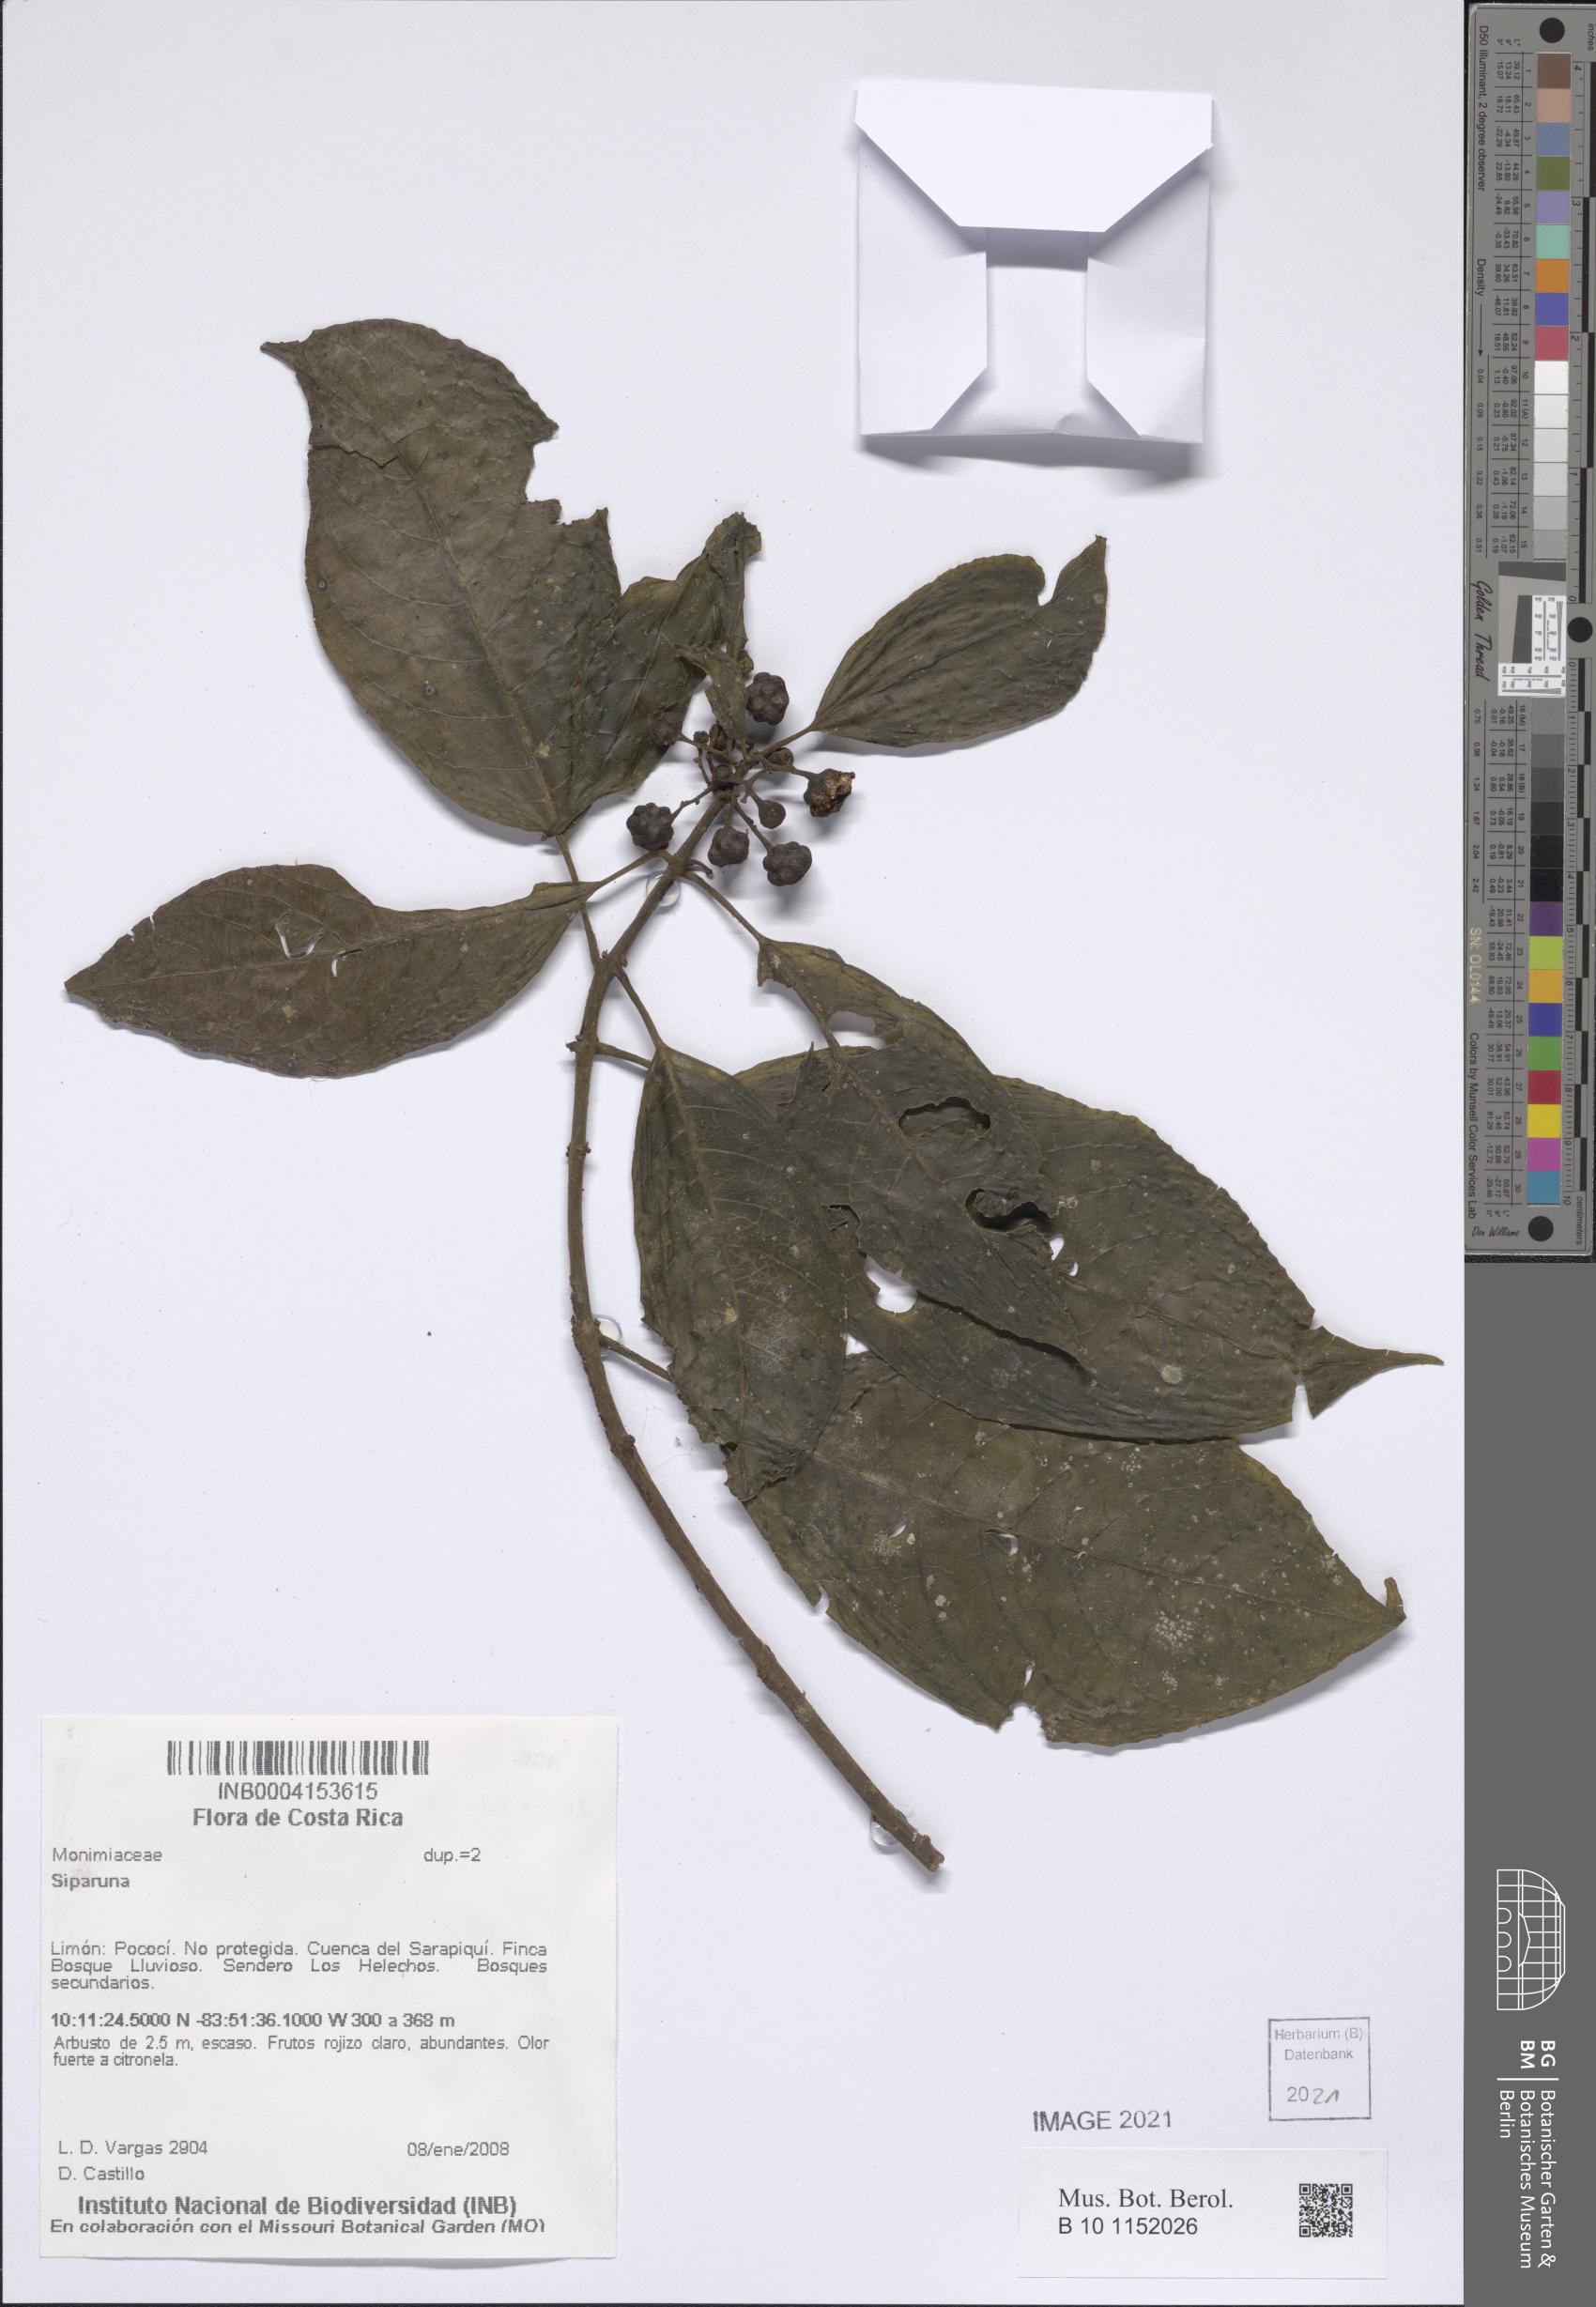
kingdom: Plantae
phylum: Tracheophyta
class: Magnoliopsida
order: Laurales
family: Siparunaceae
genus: Siparuna
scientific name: Siparuna
